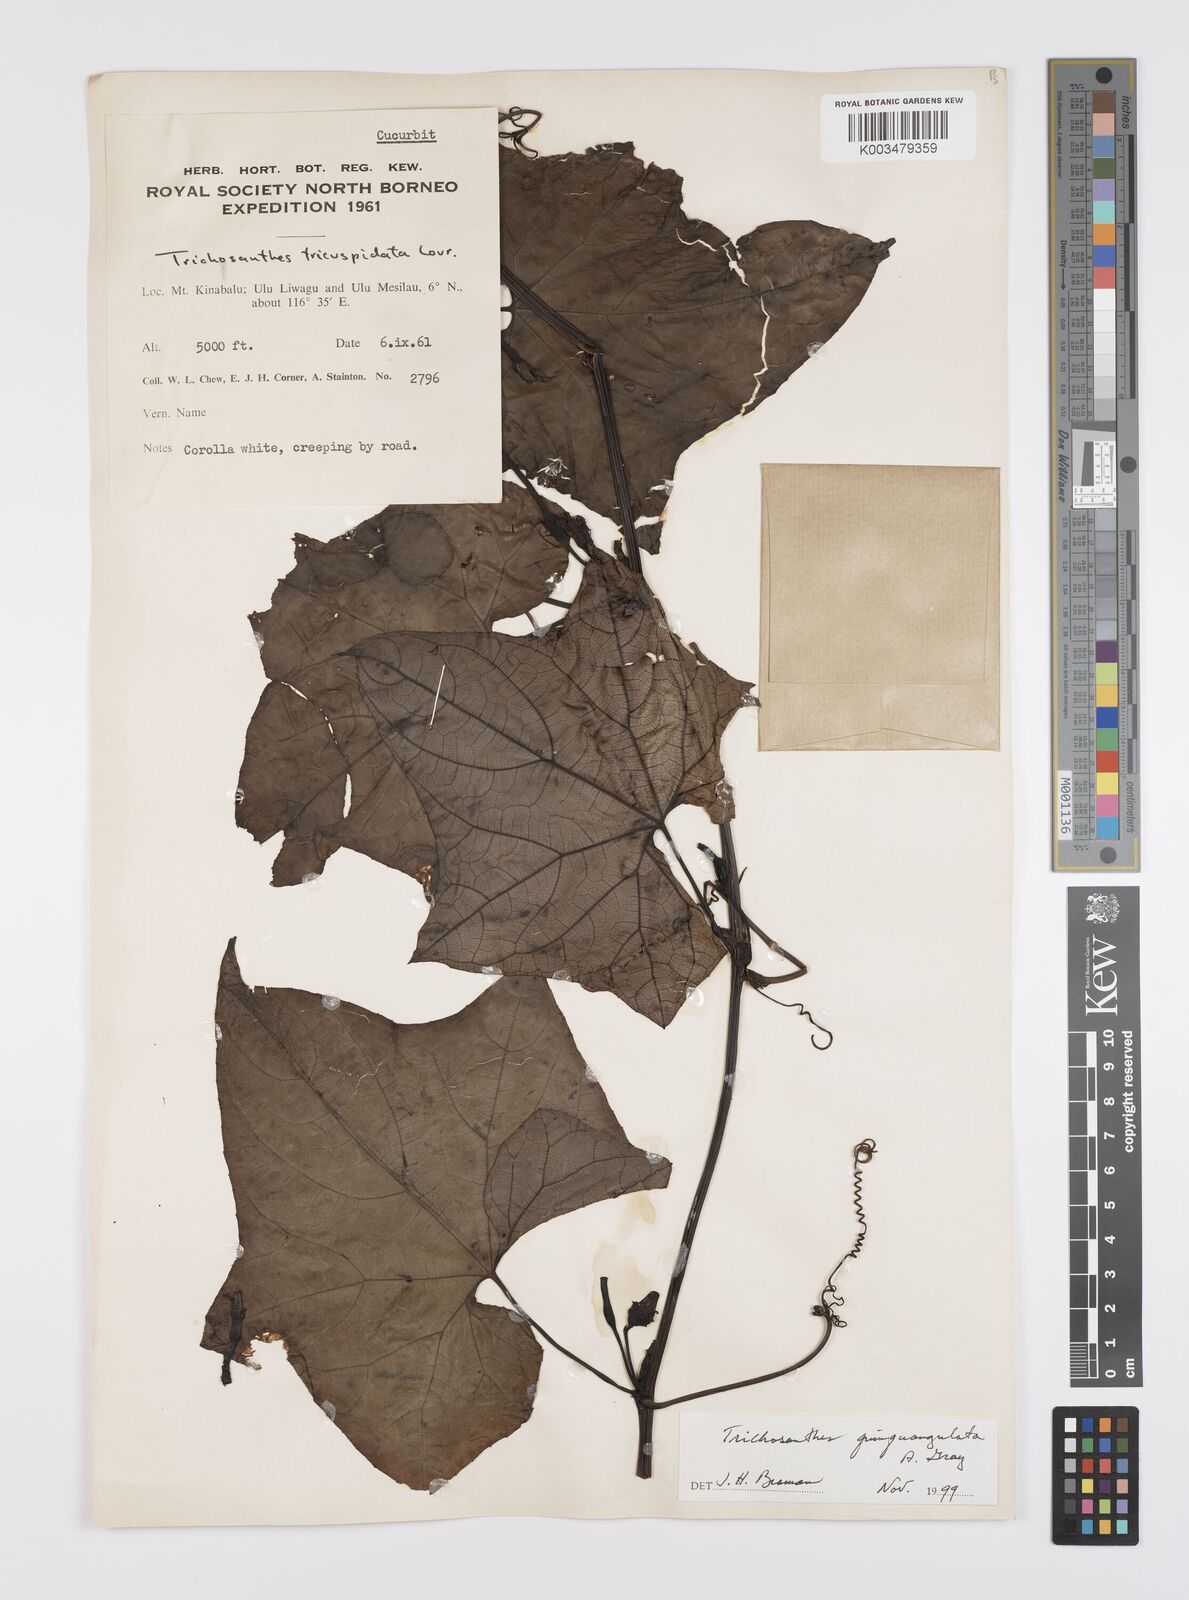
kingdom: Plantae
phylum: Tracheophyta
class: Magnoliopsida
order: Cucurbitales
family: Cucurbitaceae
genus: Trichosanthes
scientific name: Trichosanthes tricuspidata
